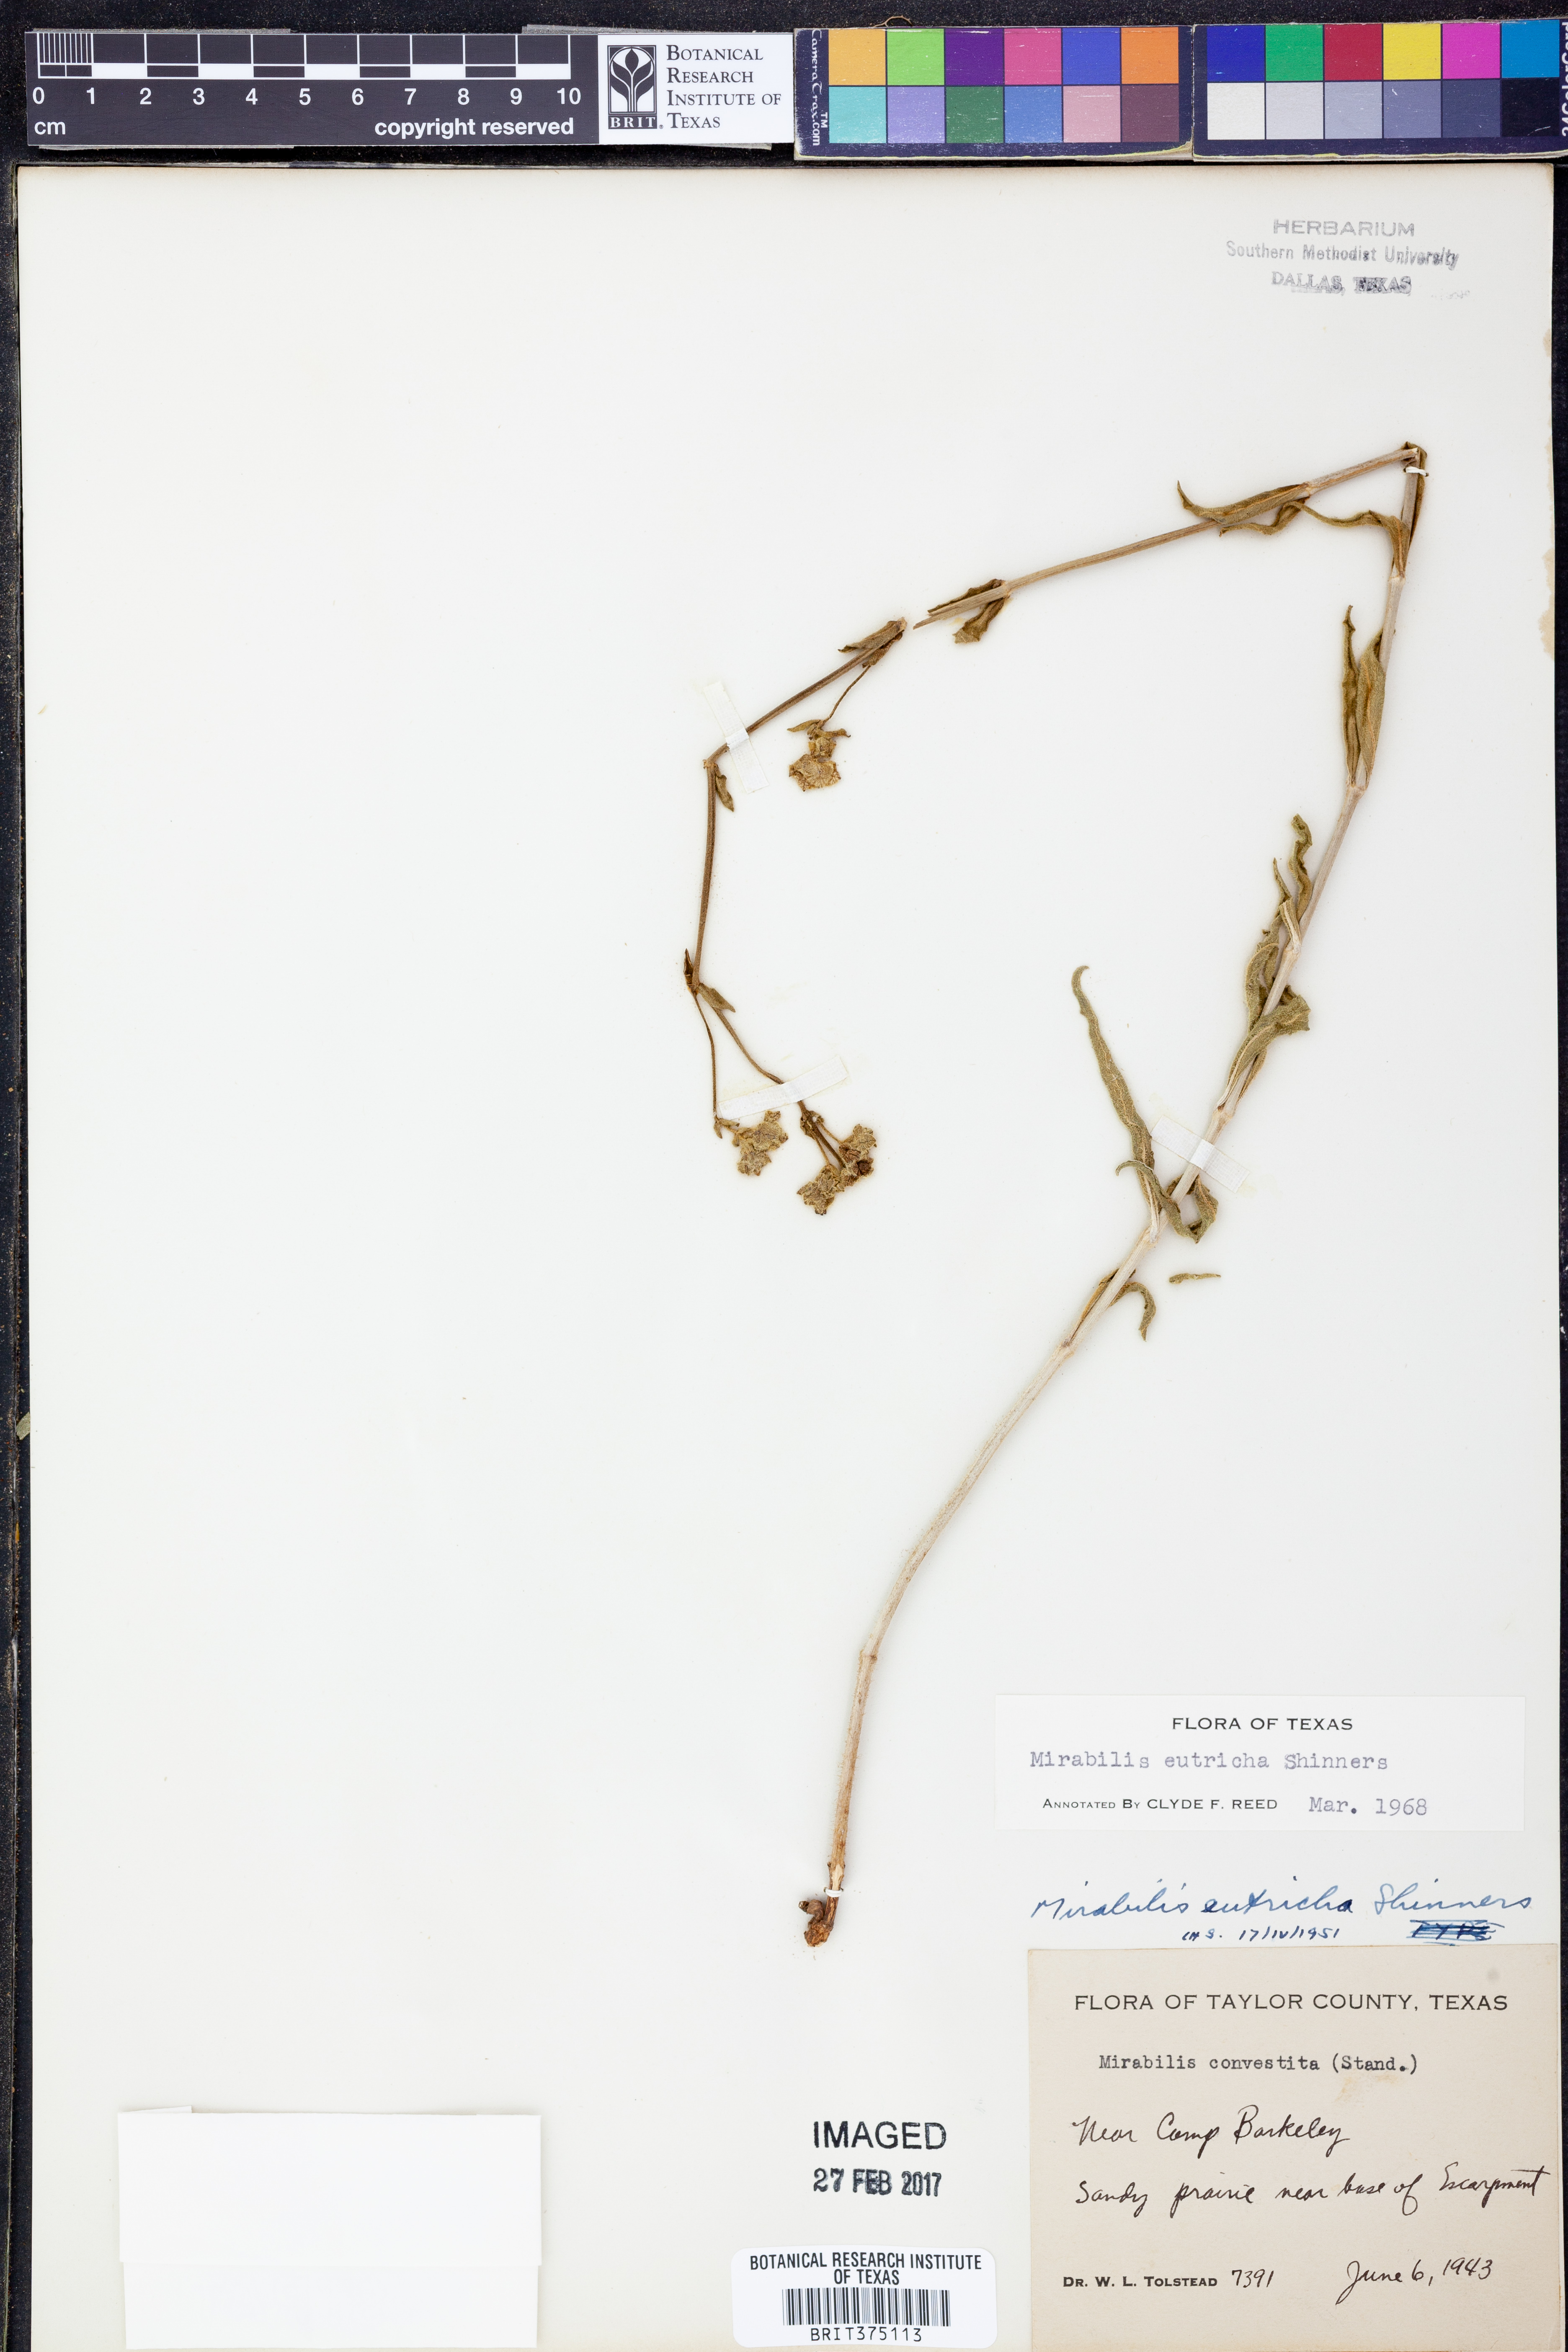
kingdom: Plantae
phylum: Tracheophyta
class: Magnoliopsida
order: Caryophyllales
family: Nyctaginaceae
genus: Mirabilis
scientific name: Mirabilis albida
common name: Hairy four-o'clock
